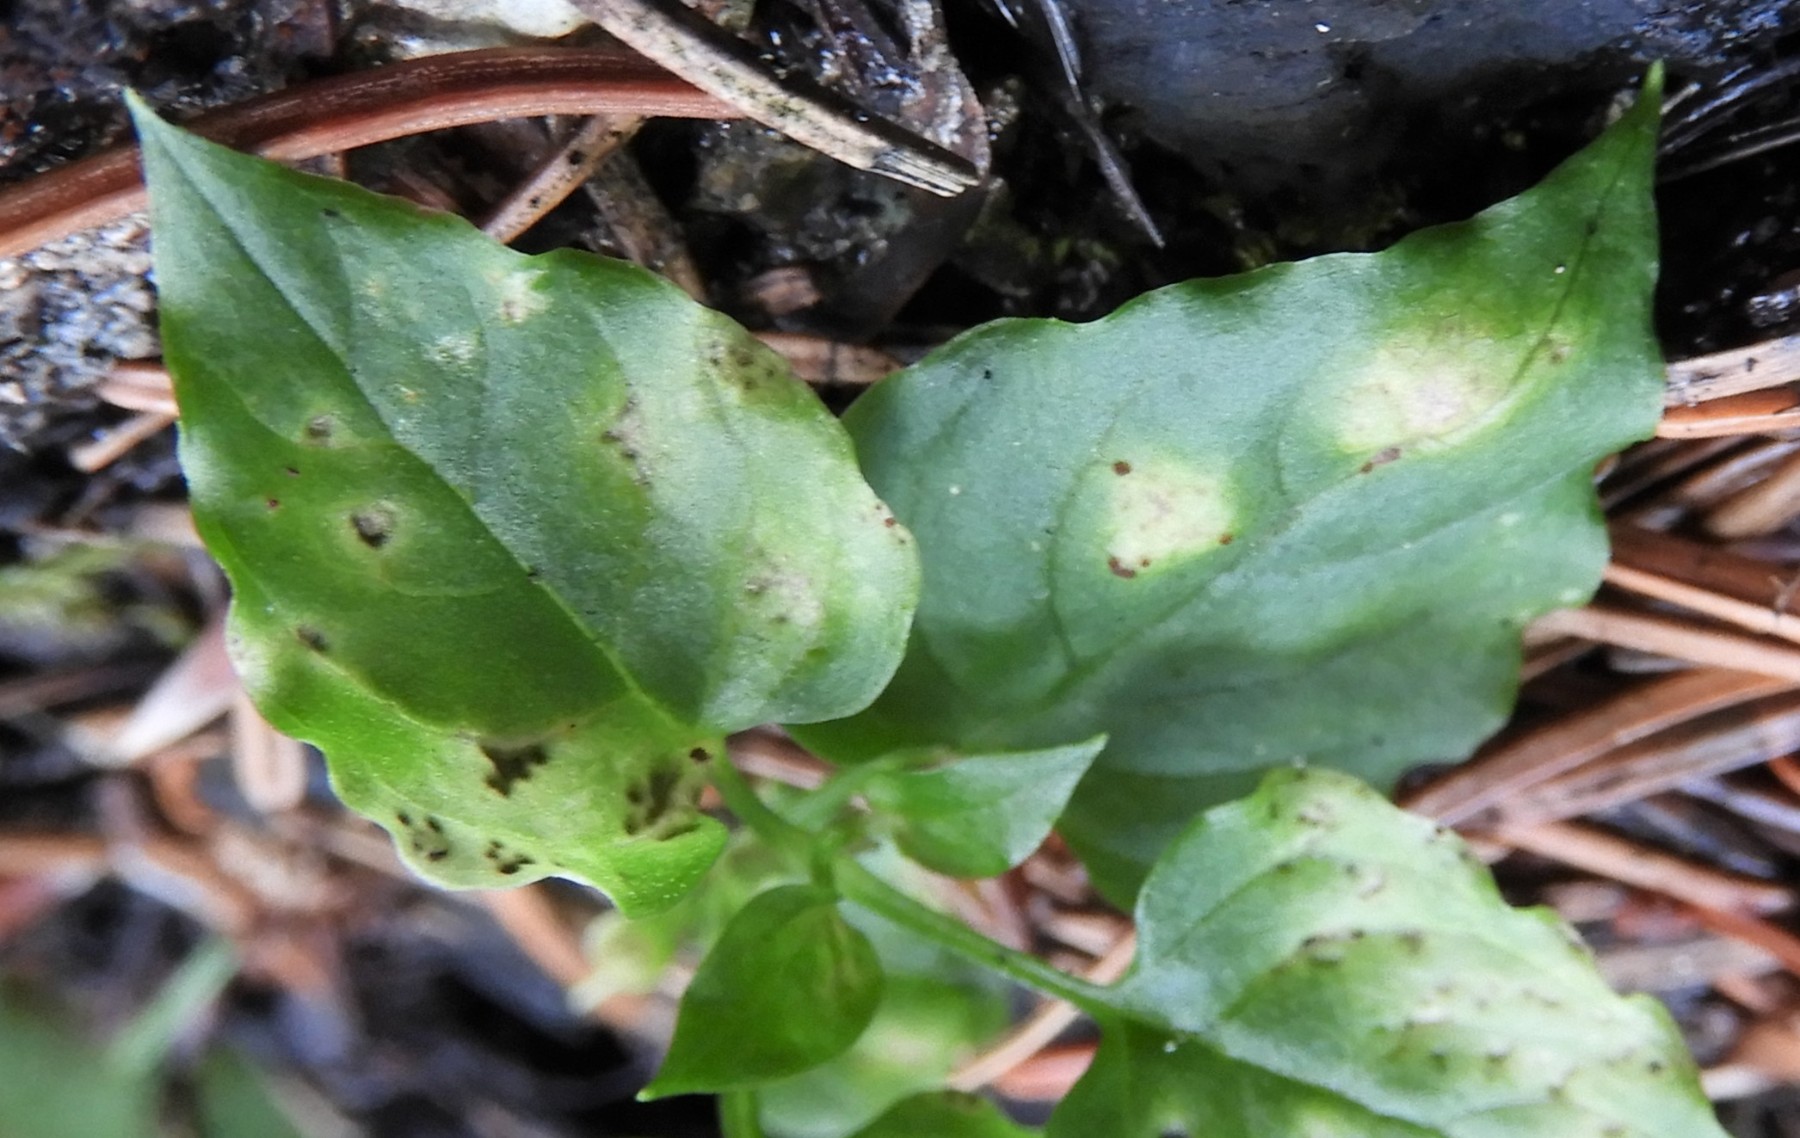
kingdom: Fungi
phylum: Basidiomycota
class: Pucciniomycetes
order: Pucciniales
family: Pucciniaceae
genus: Puccinia
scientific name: Puccinia arenariae
